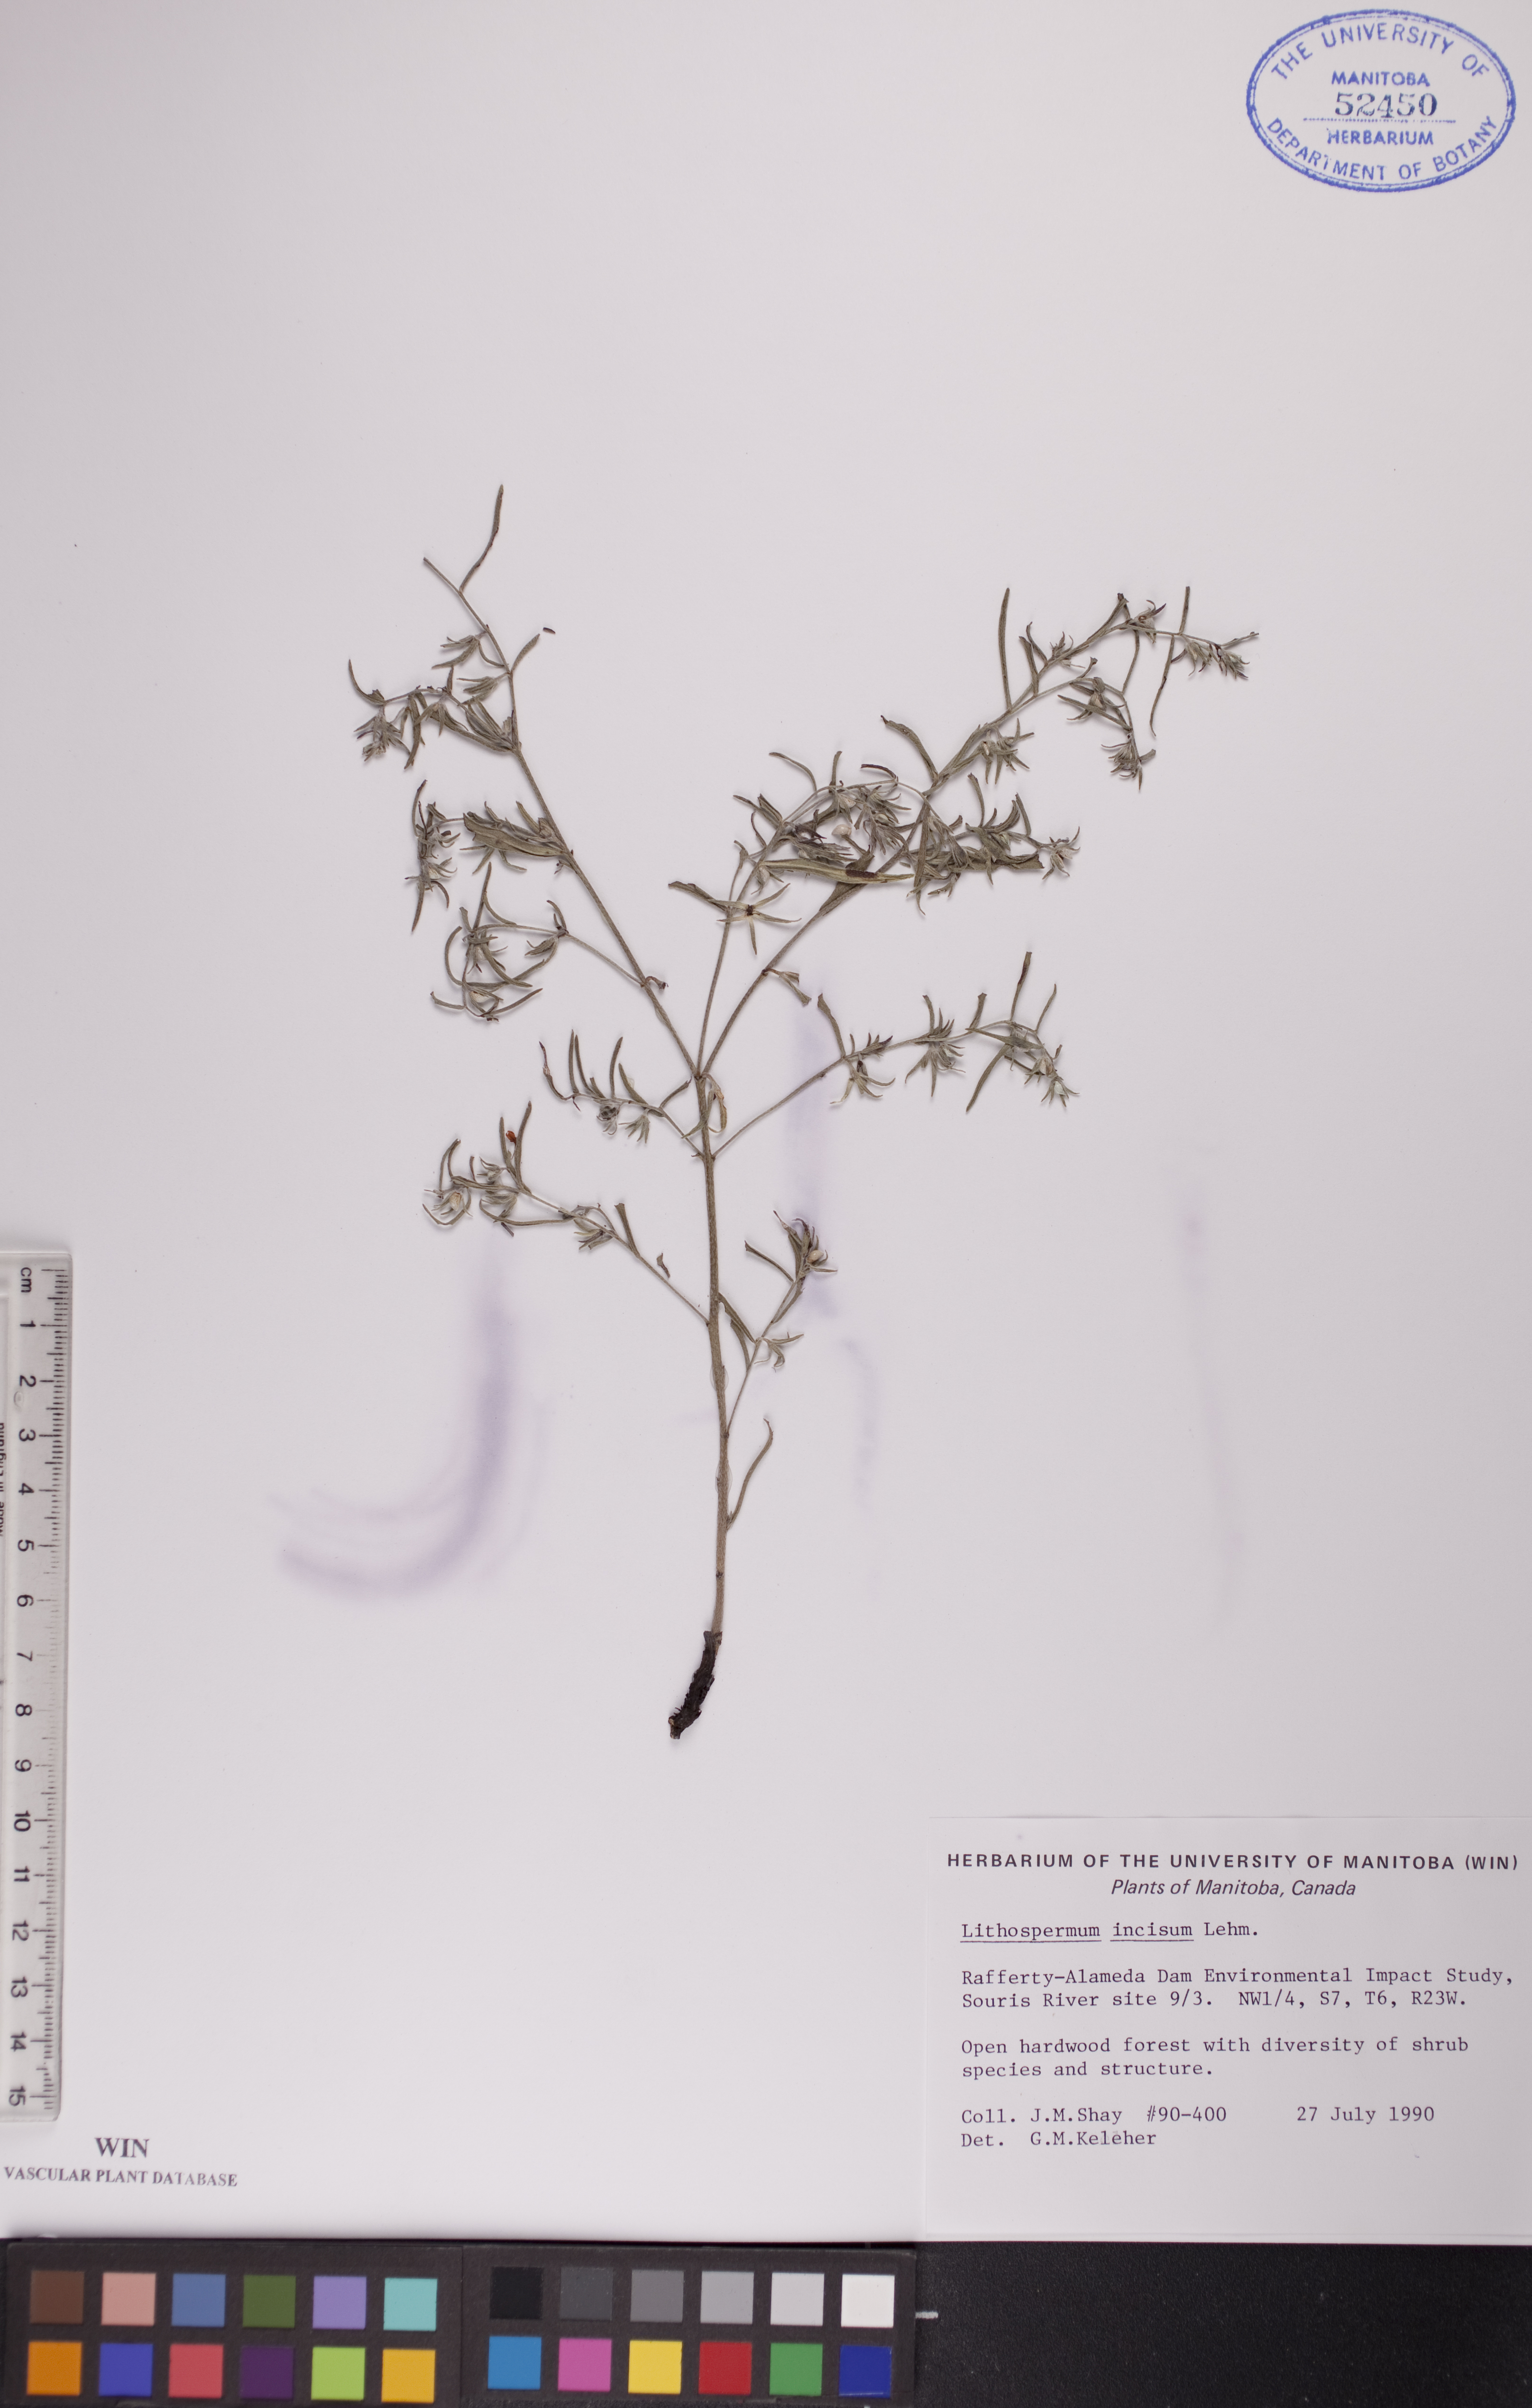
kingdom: Plantae
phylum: Tracheophyta
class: Magnoliopsida
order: Boraginales
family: Boraginaceae
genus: Lithospermum
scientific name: Lithospermum incisum
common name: Fringed gromwell
